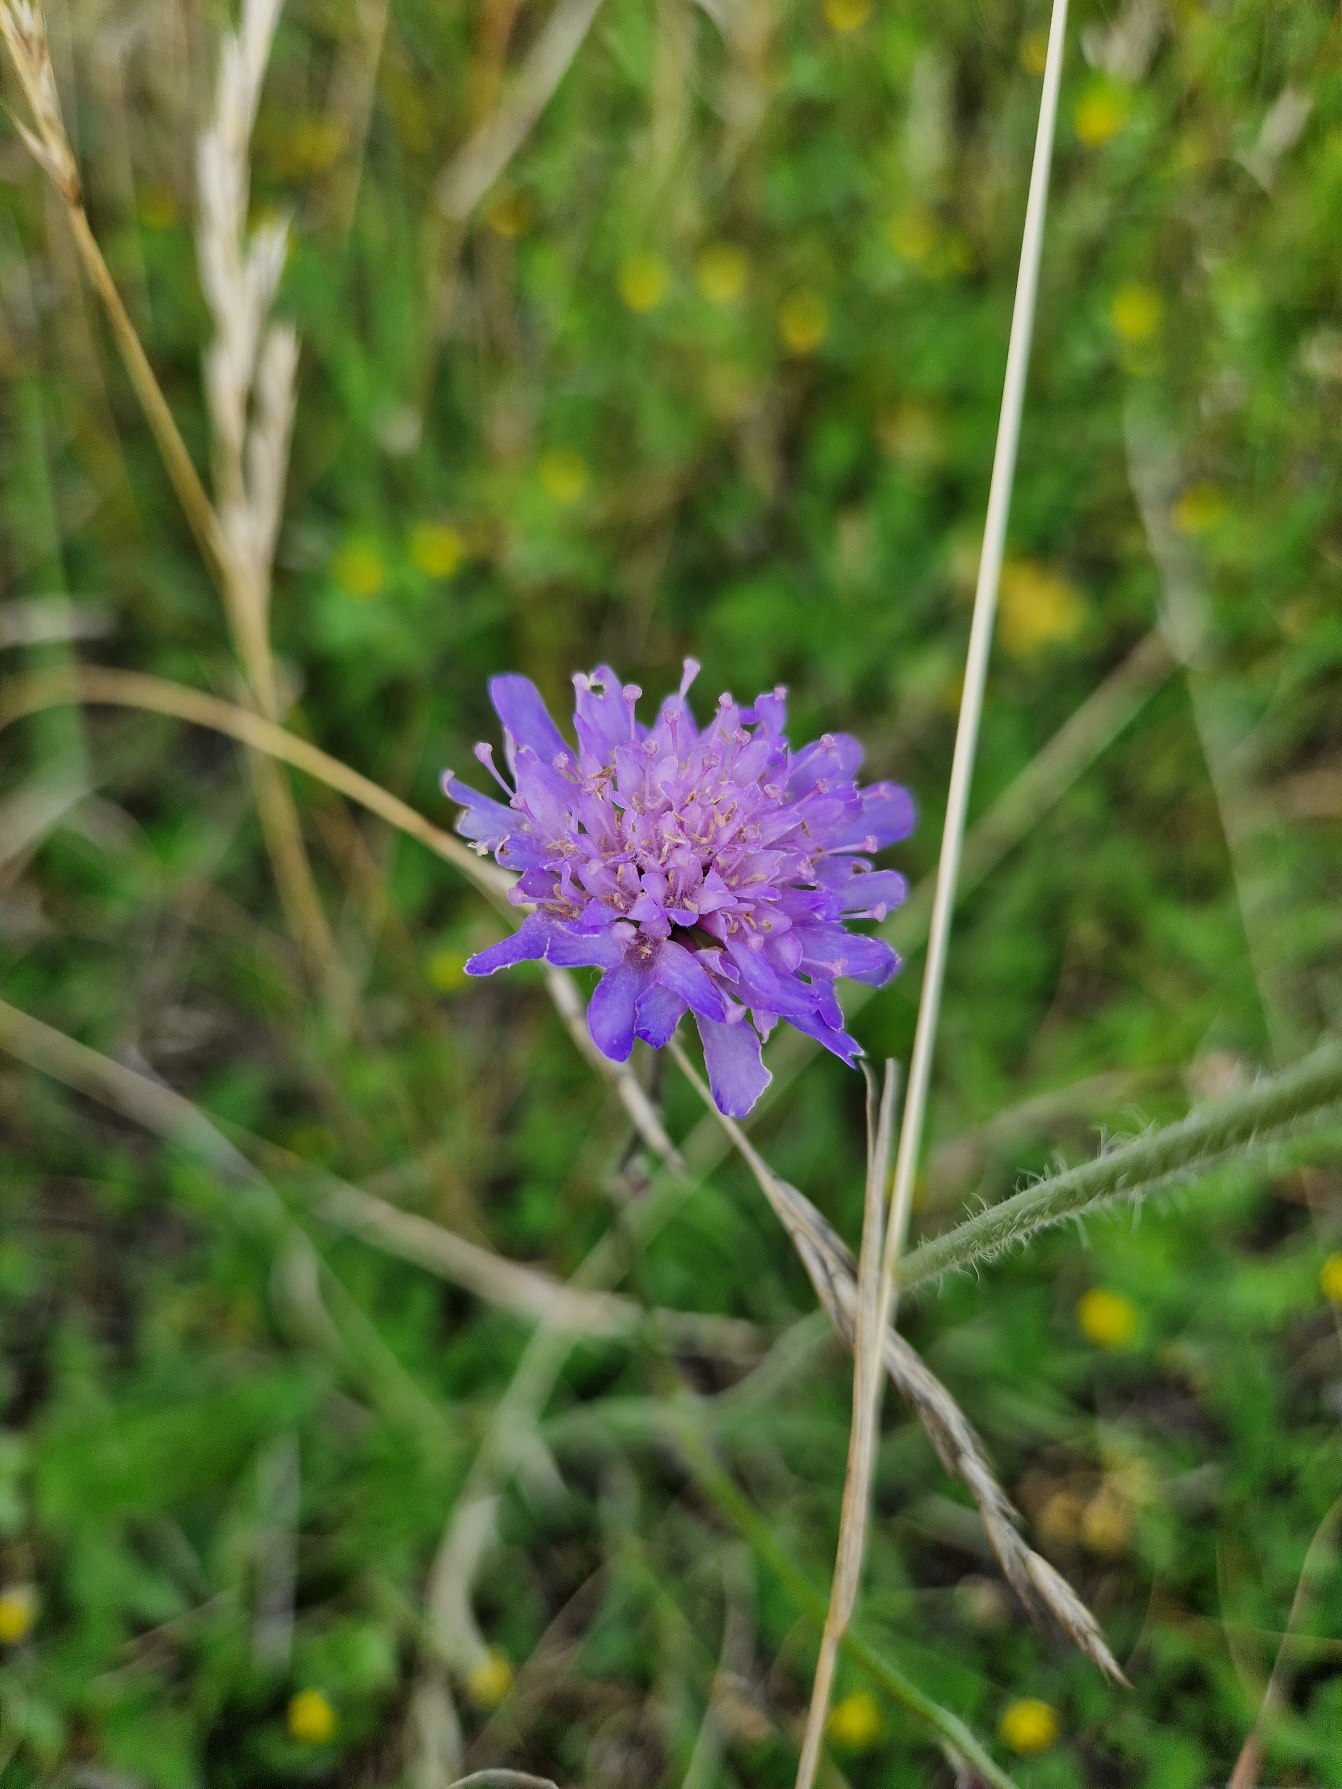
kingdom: Plantae
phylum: Tracheophyta
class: Magnoliopsida
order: Dipsacales
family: Caprifoliaceae
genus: Knautia
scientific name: Knautia arvensis
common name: Blåhat
